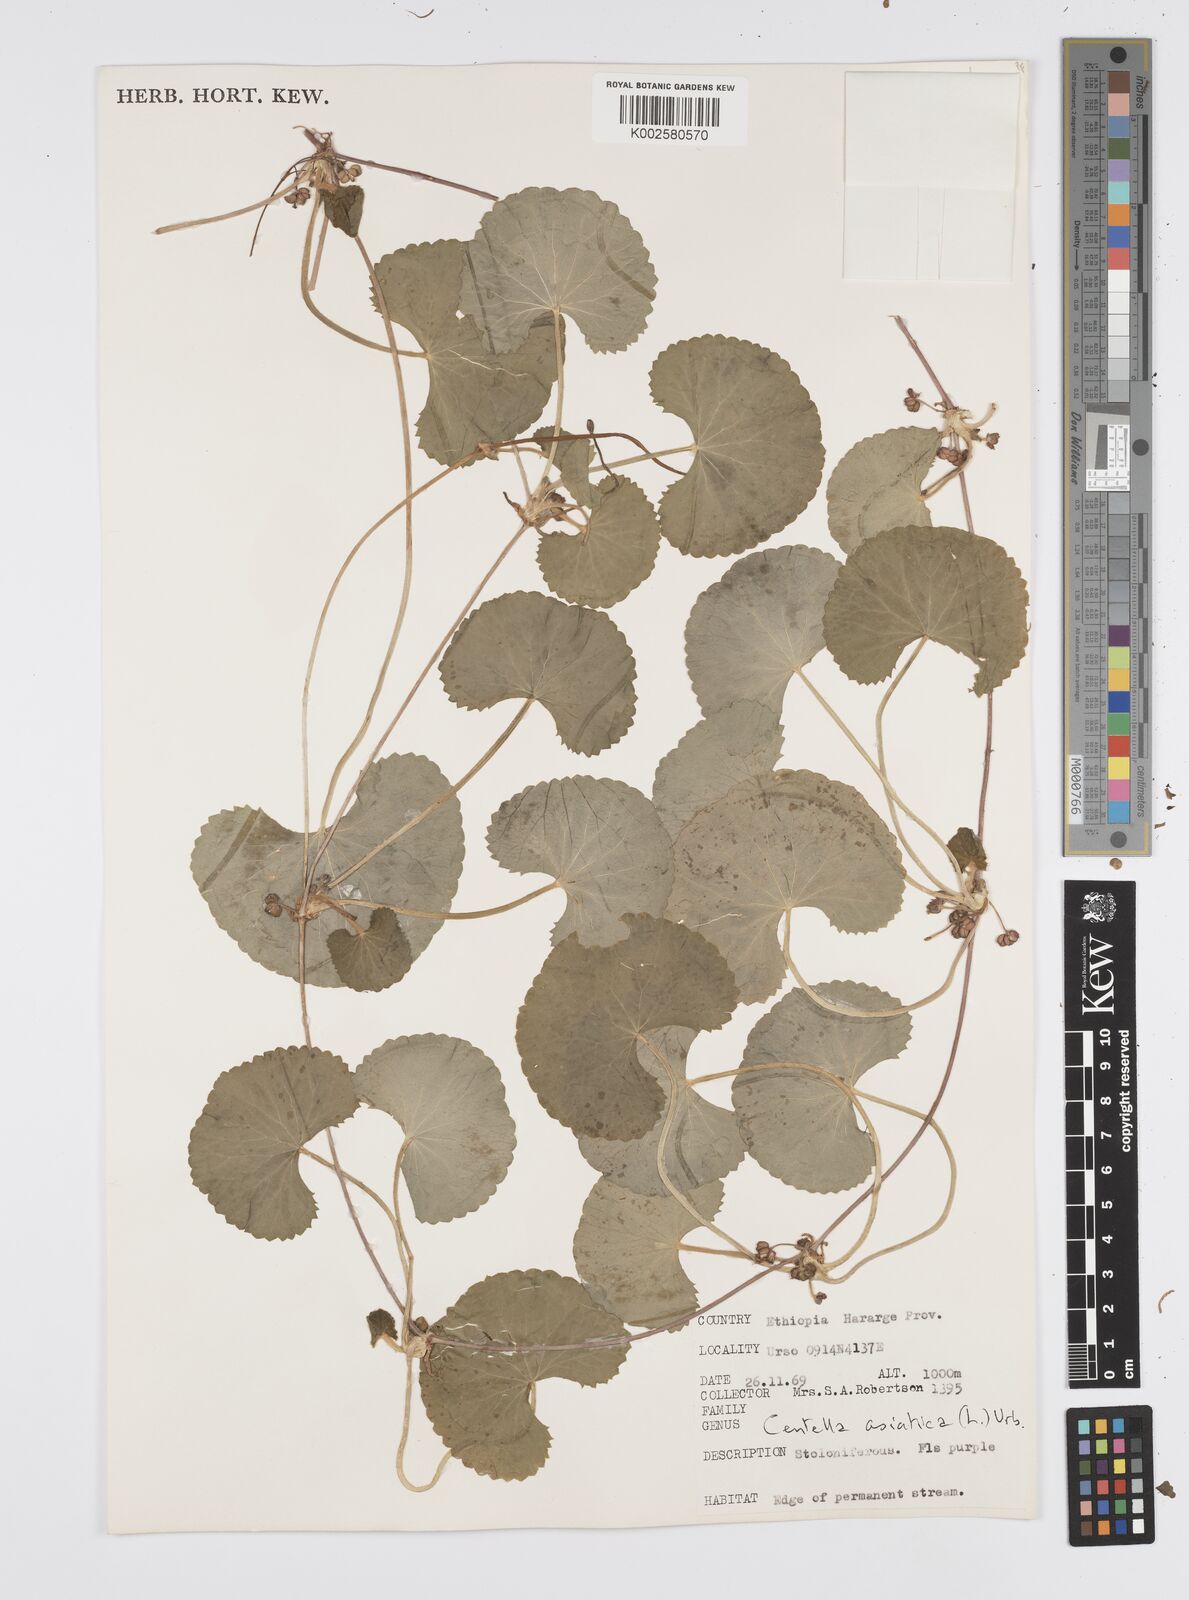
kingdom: Plantae
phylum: Tracheophyta
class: Magnoliopsida
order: Apiales
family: Apiaceae
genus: Centella
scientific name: Centella asiatica
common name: Spadeleaf
